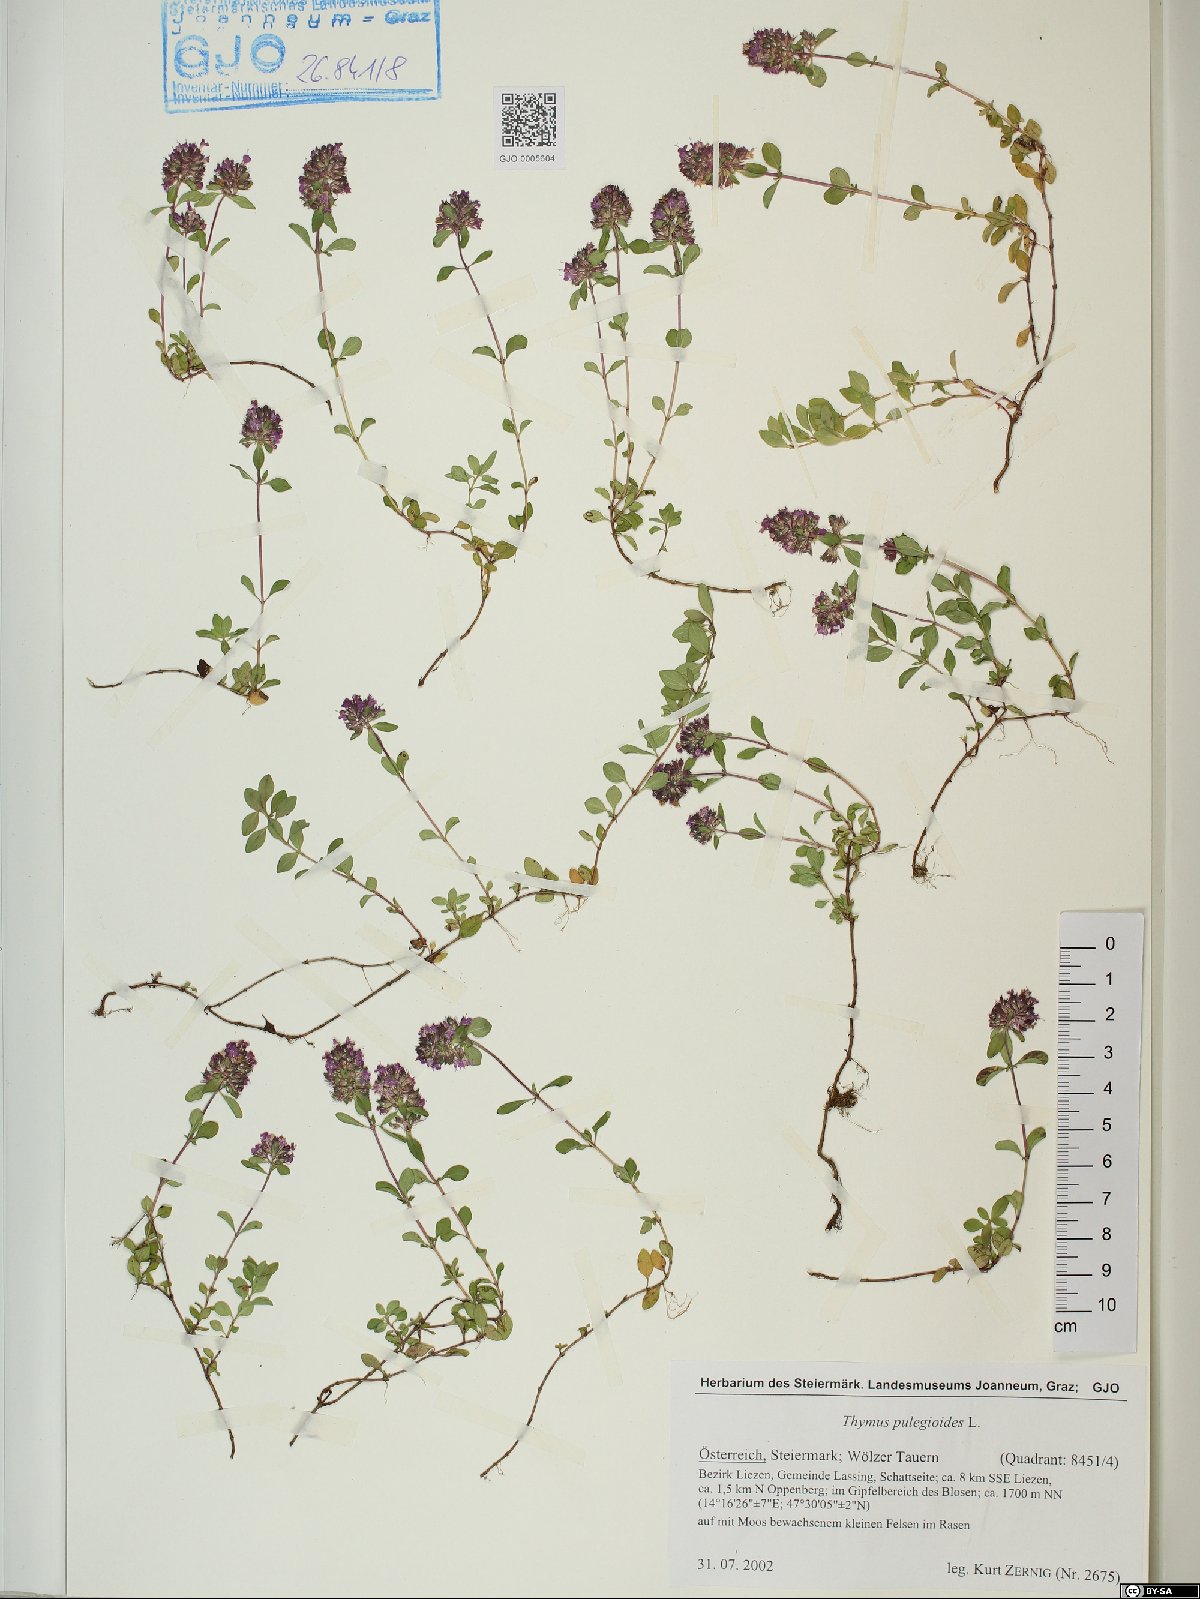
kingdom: Plantae
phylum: Tracheophyta
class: Magnoliopsida
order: Lamiales
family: Lamiaceae
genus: Thymus
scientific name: Thymus pulegioides
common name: Large thyme
